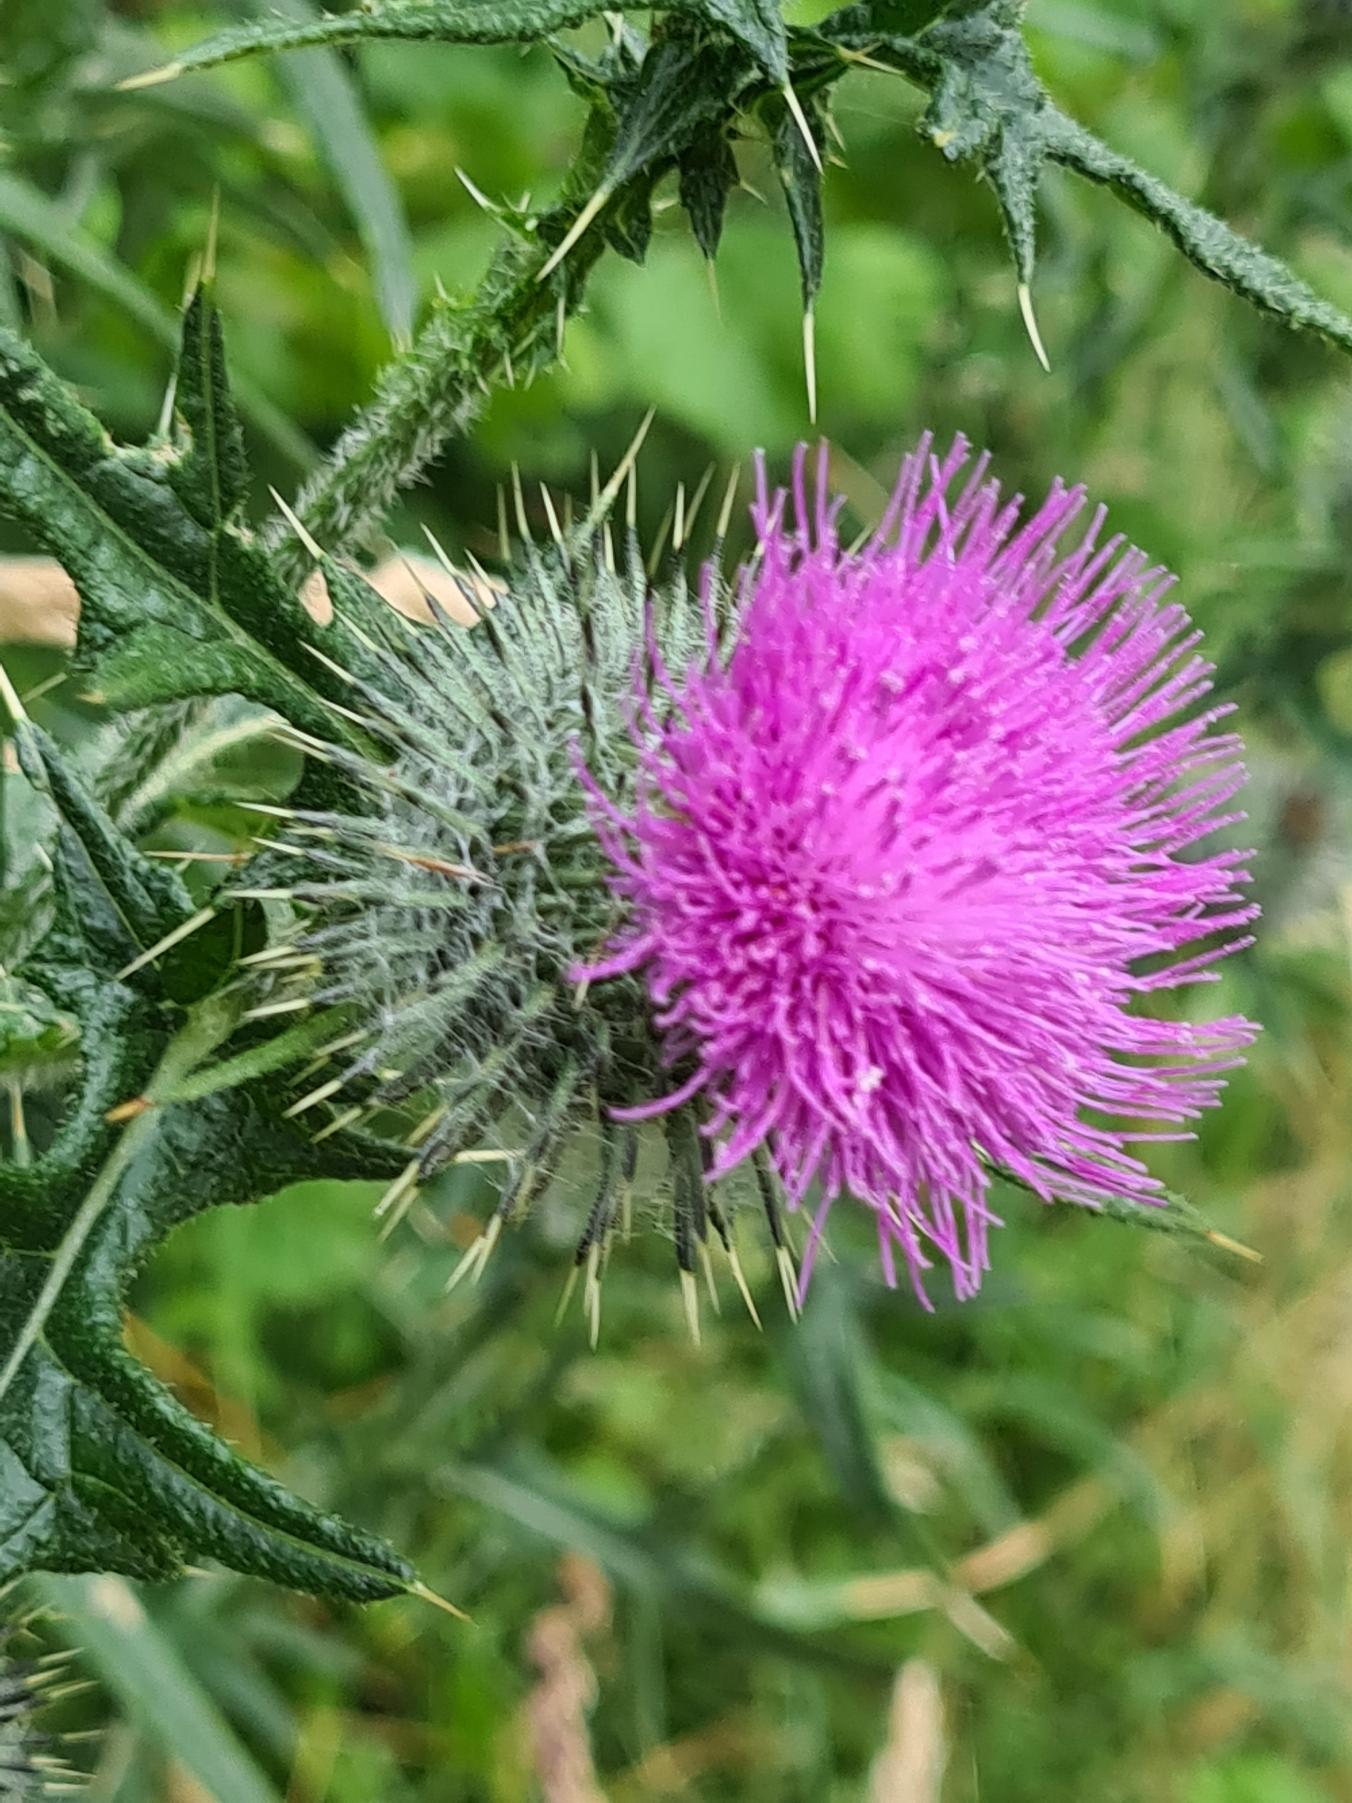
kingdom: Plantae
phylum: Tracheophyta
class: Magnoliopsida
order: Asterales
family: Asteraceae
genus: Cirsium
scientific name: Cirsium vulgare
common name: Horse-tidsel
